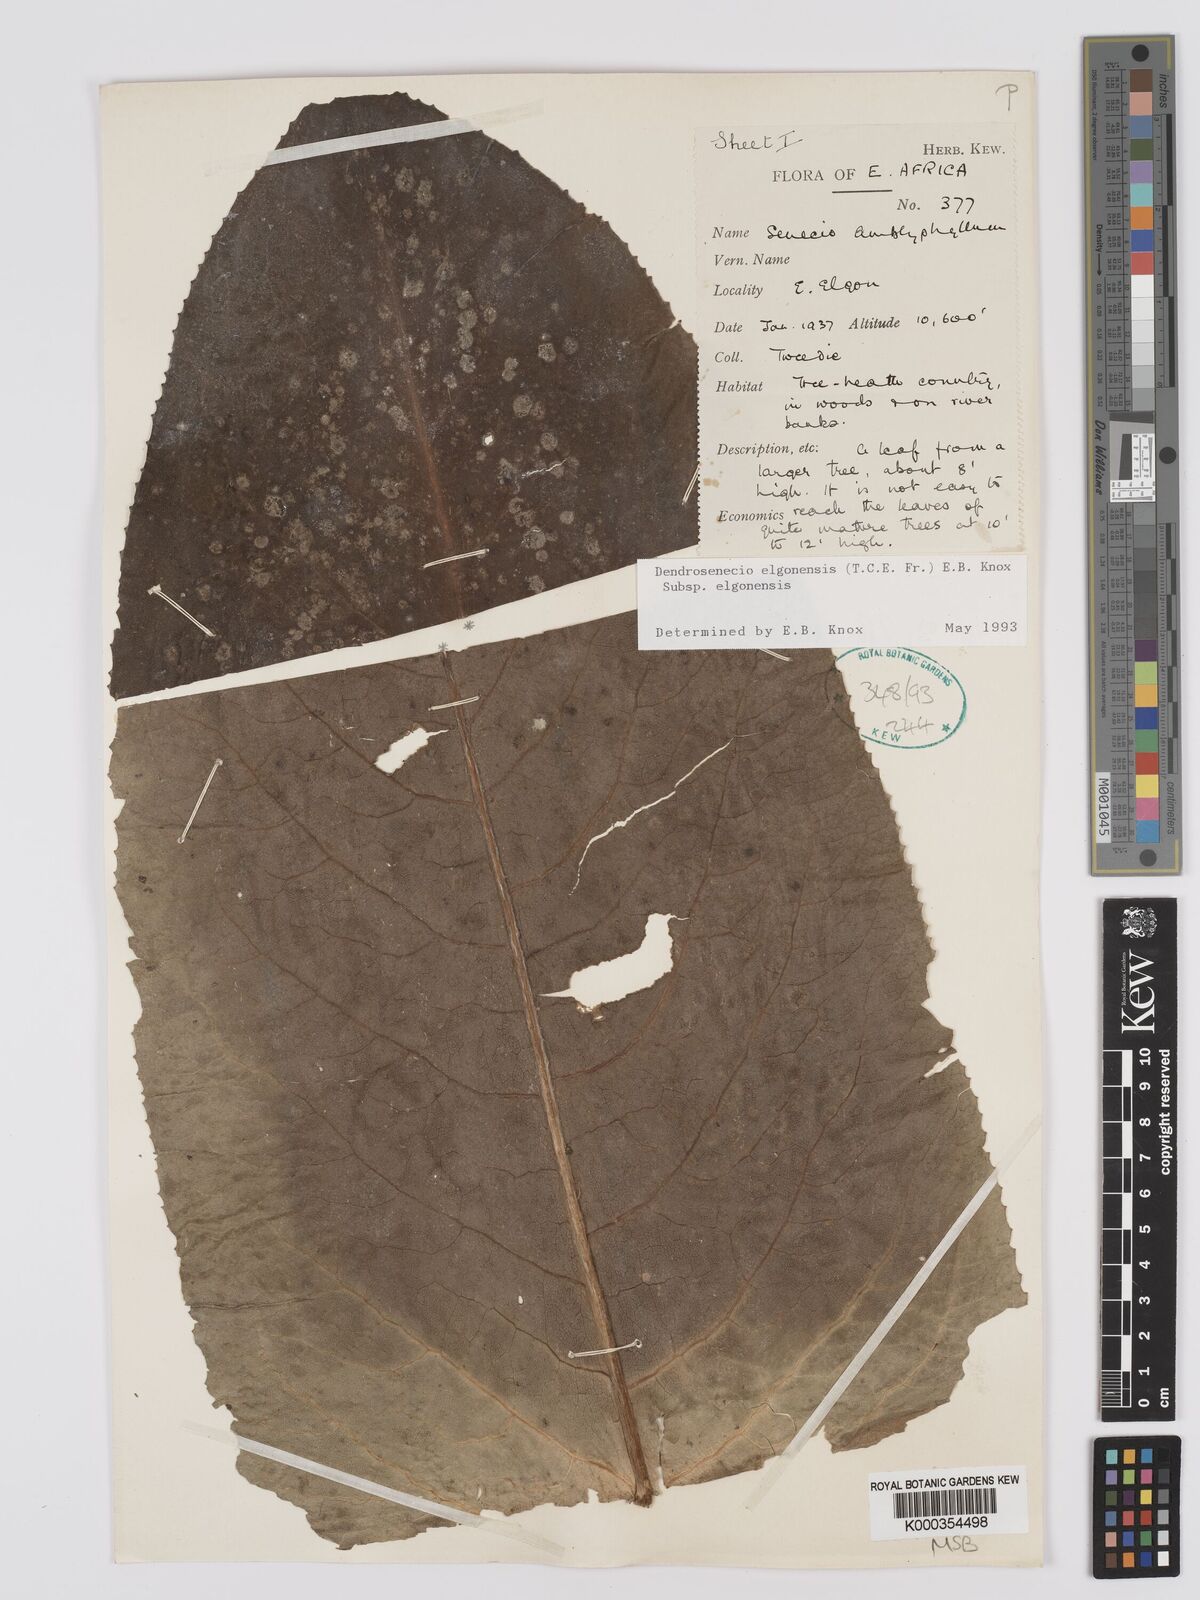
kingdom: Plantae
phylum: Tracheophyta
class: Magnoliopsida
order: Asterales
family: Asteraceae
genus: Dendrosenecio
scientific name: Dendrosenecio elgonensis
